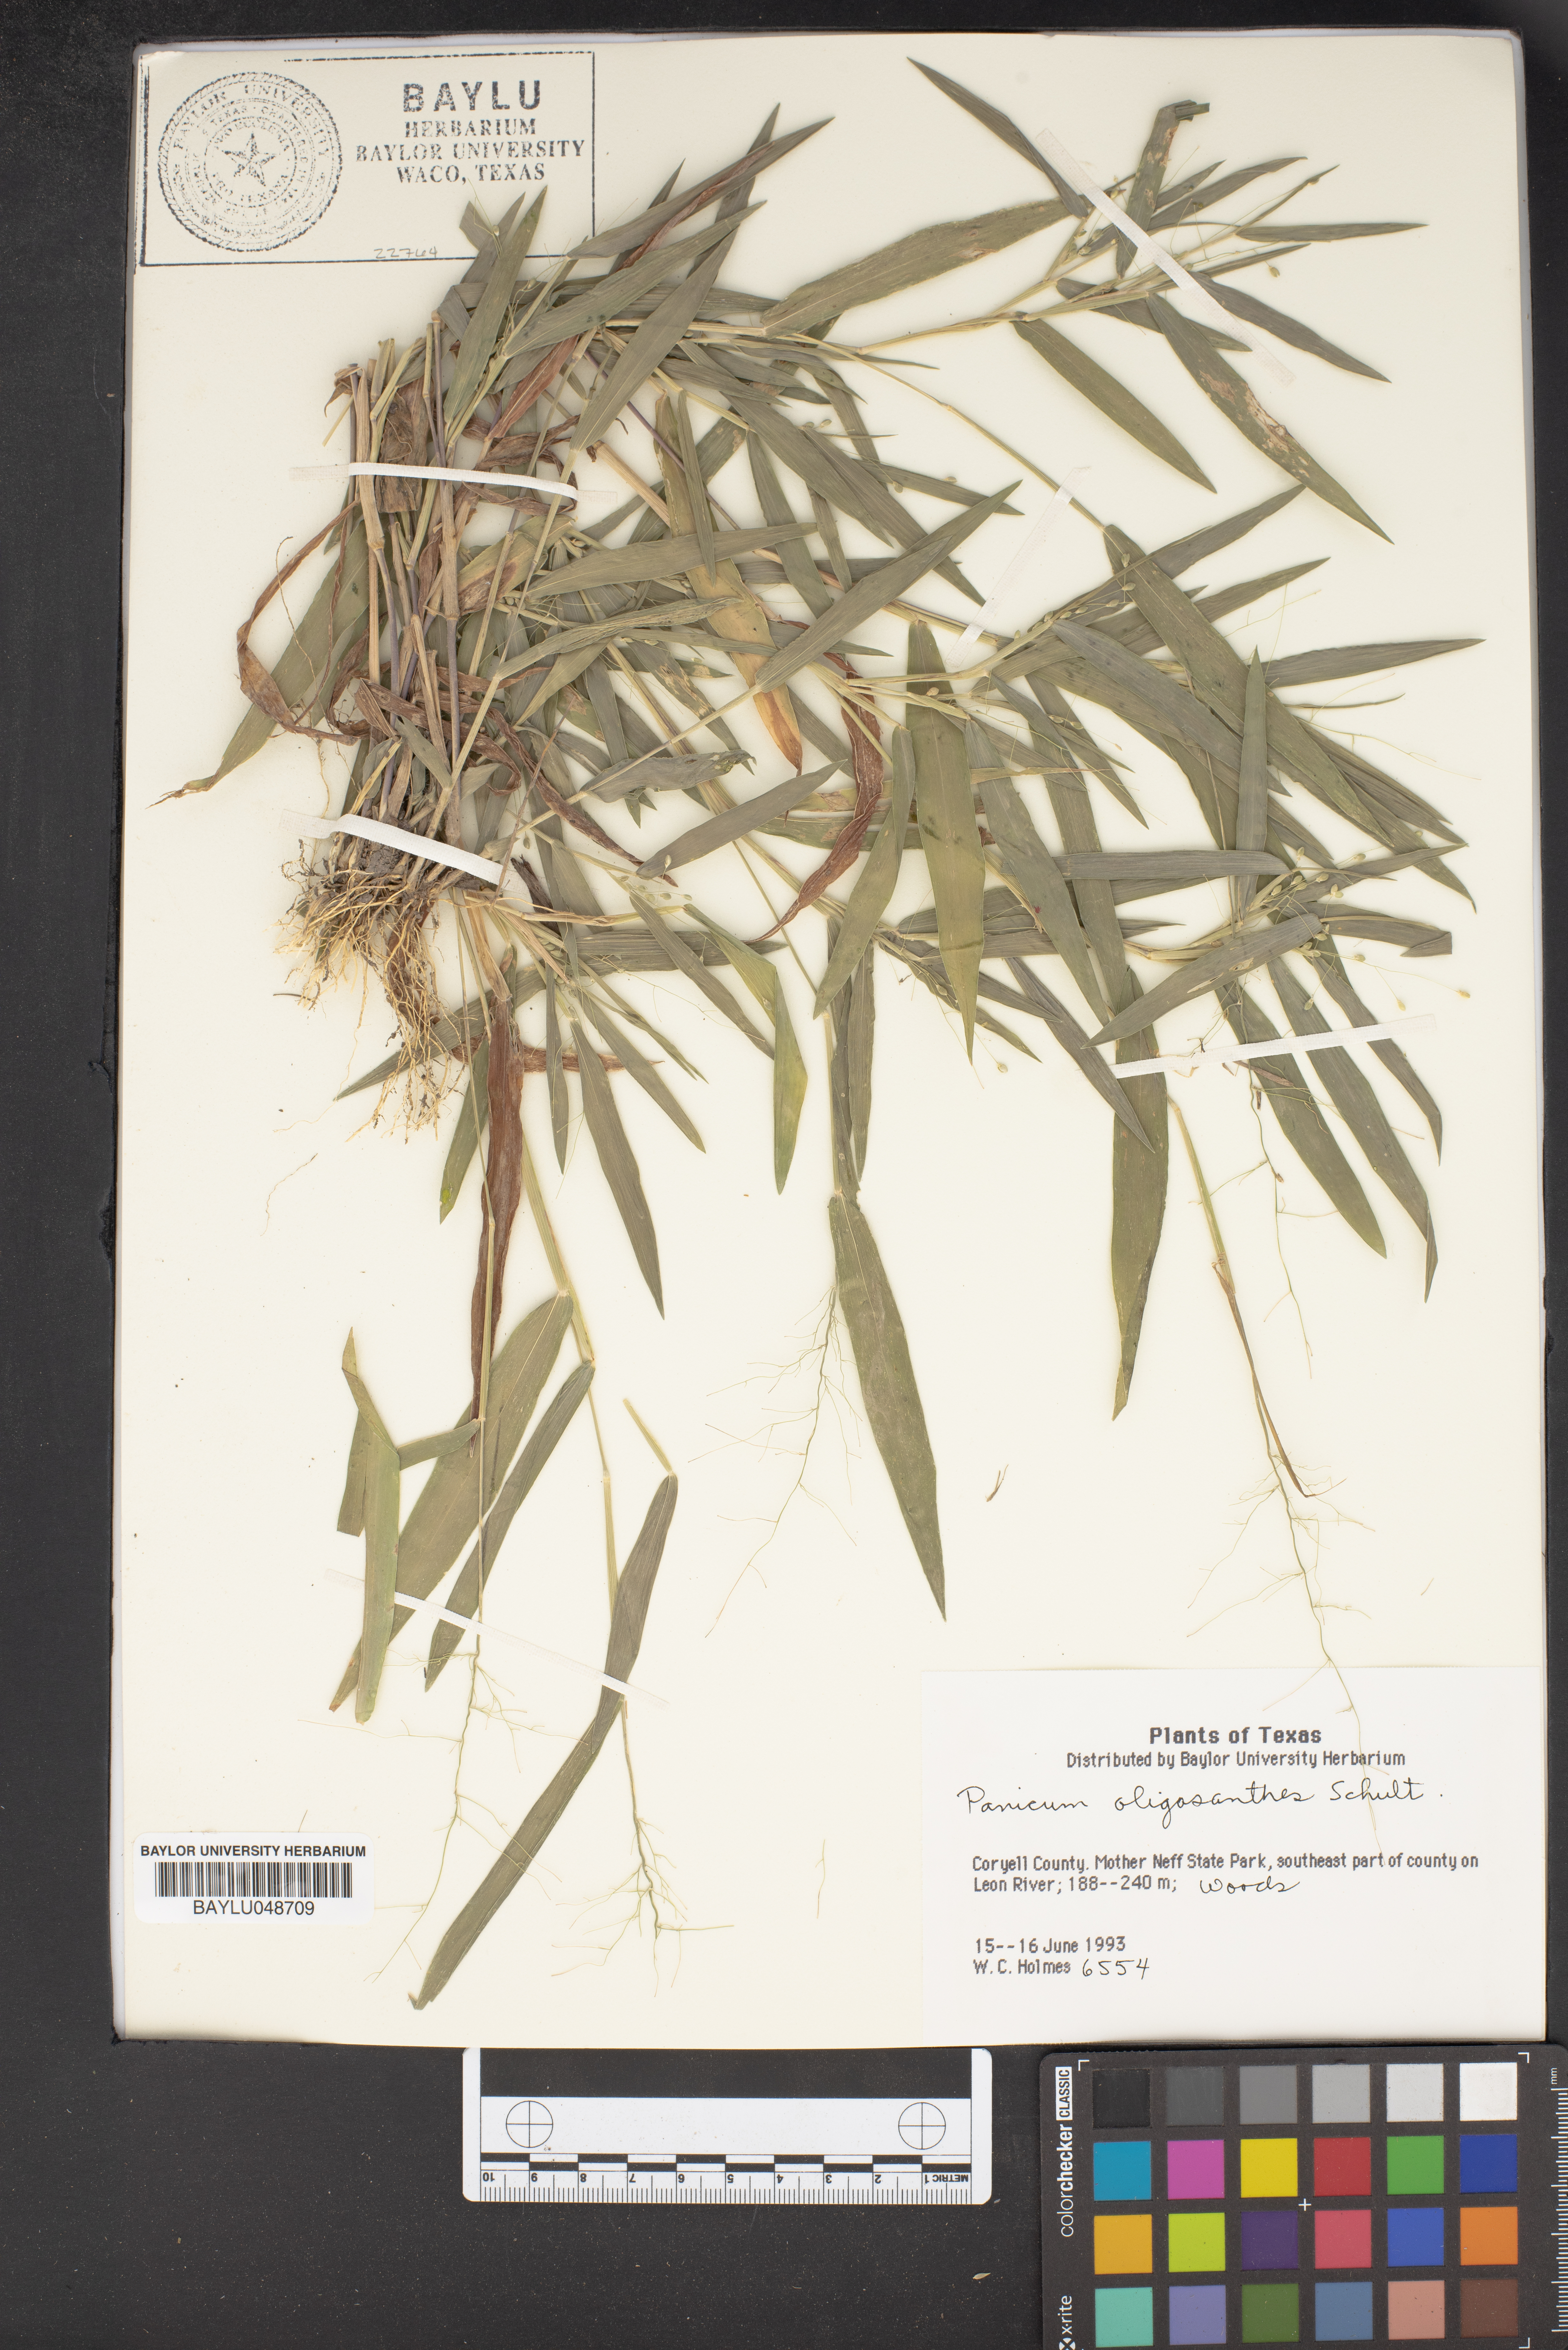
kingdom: Plantae
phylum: Tracheophyta
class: Liliopsida
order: Poales
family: Poaceae
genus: Dichanthelium
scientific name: Dichanthelium oligosanthes
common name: Few-anther obscuregrass
